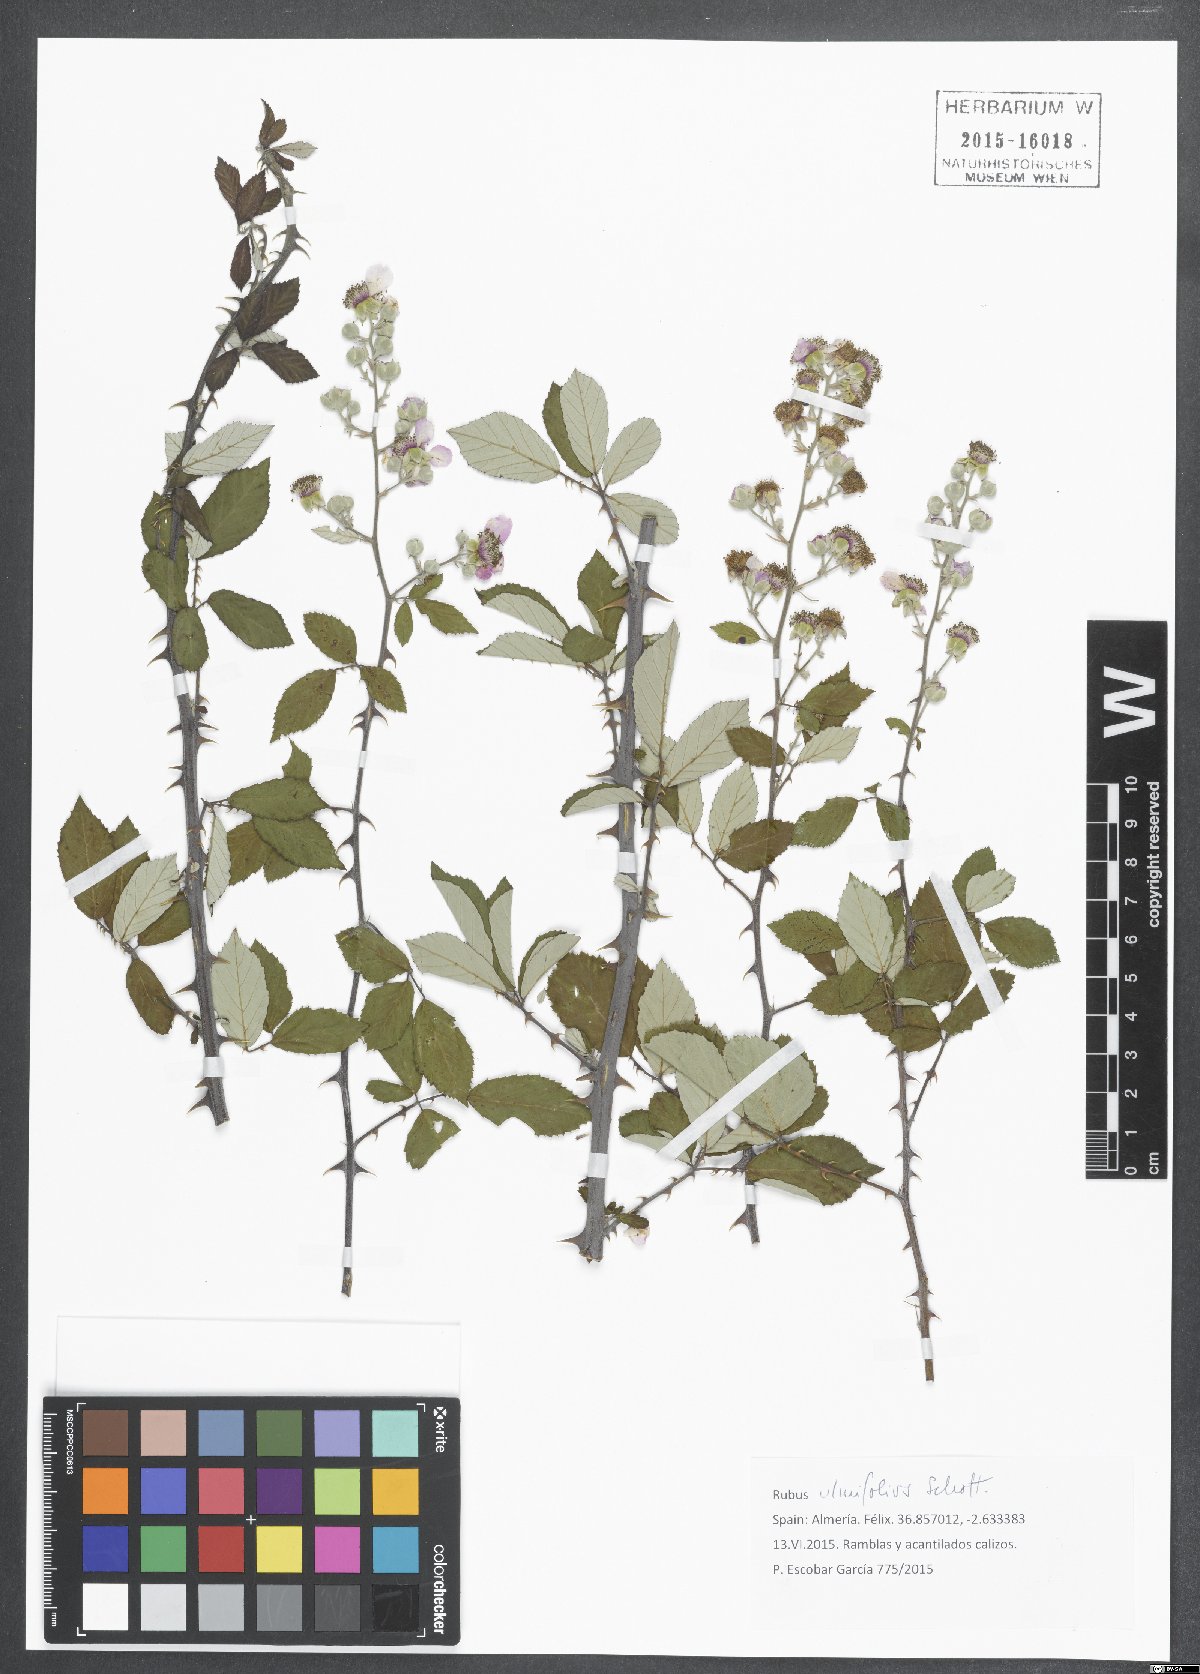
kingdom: Plantae
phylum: Tracheophyta
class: Magnoliopsida
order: Rosales
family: Rosaceae
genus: Rubus
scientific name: Rubus ulmifolius
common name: Elmleaf blackberry
